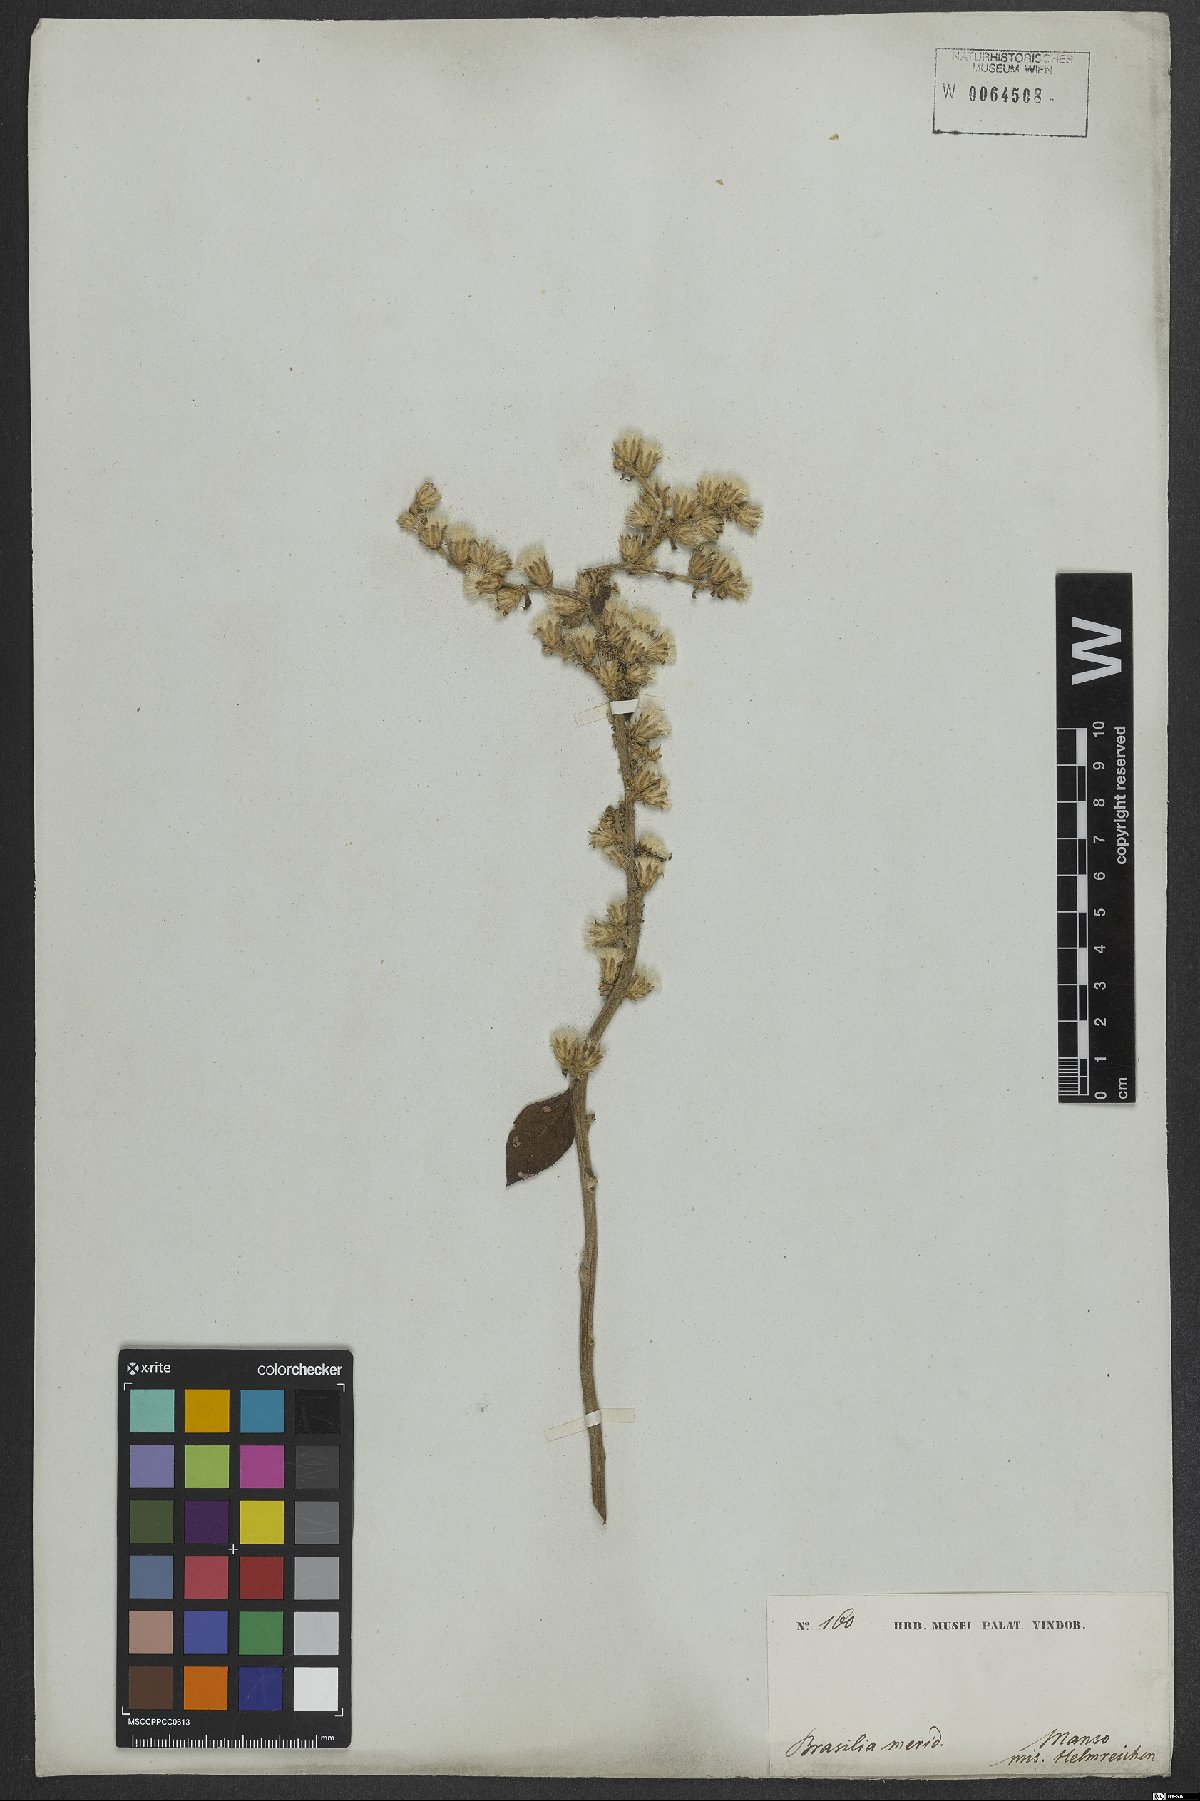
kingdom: Plantae
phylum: Tracheophyta
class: Magnoliopsida
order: Asterales
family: Asteraceae
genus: Lepidaploa
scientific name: Lepidaploa barbata
